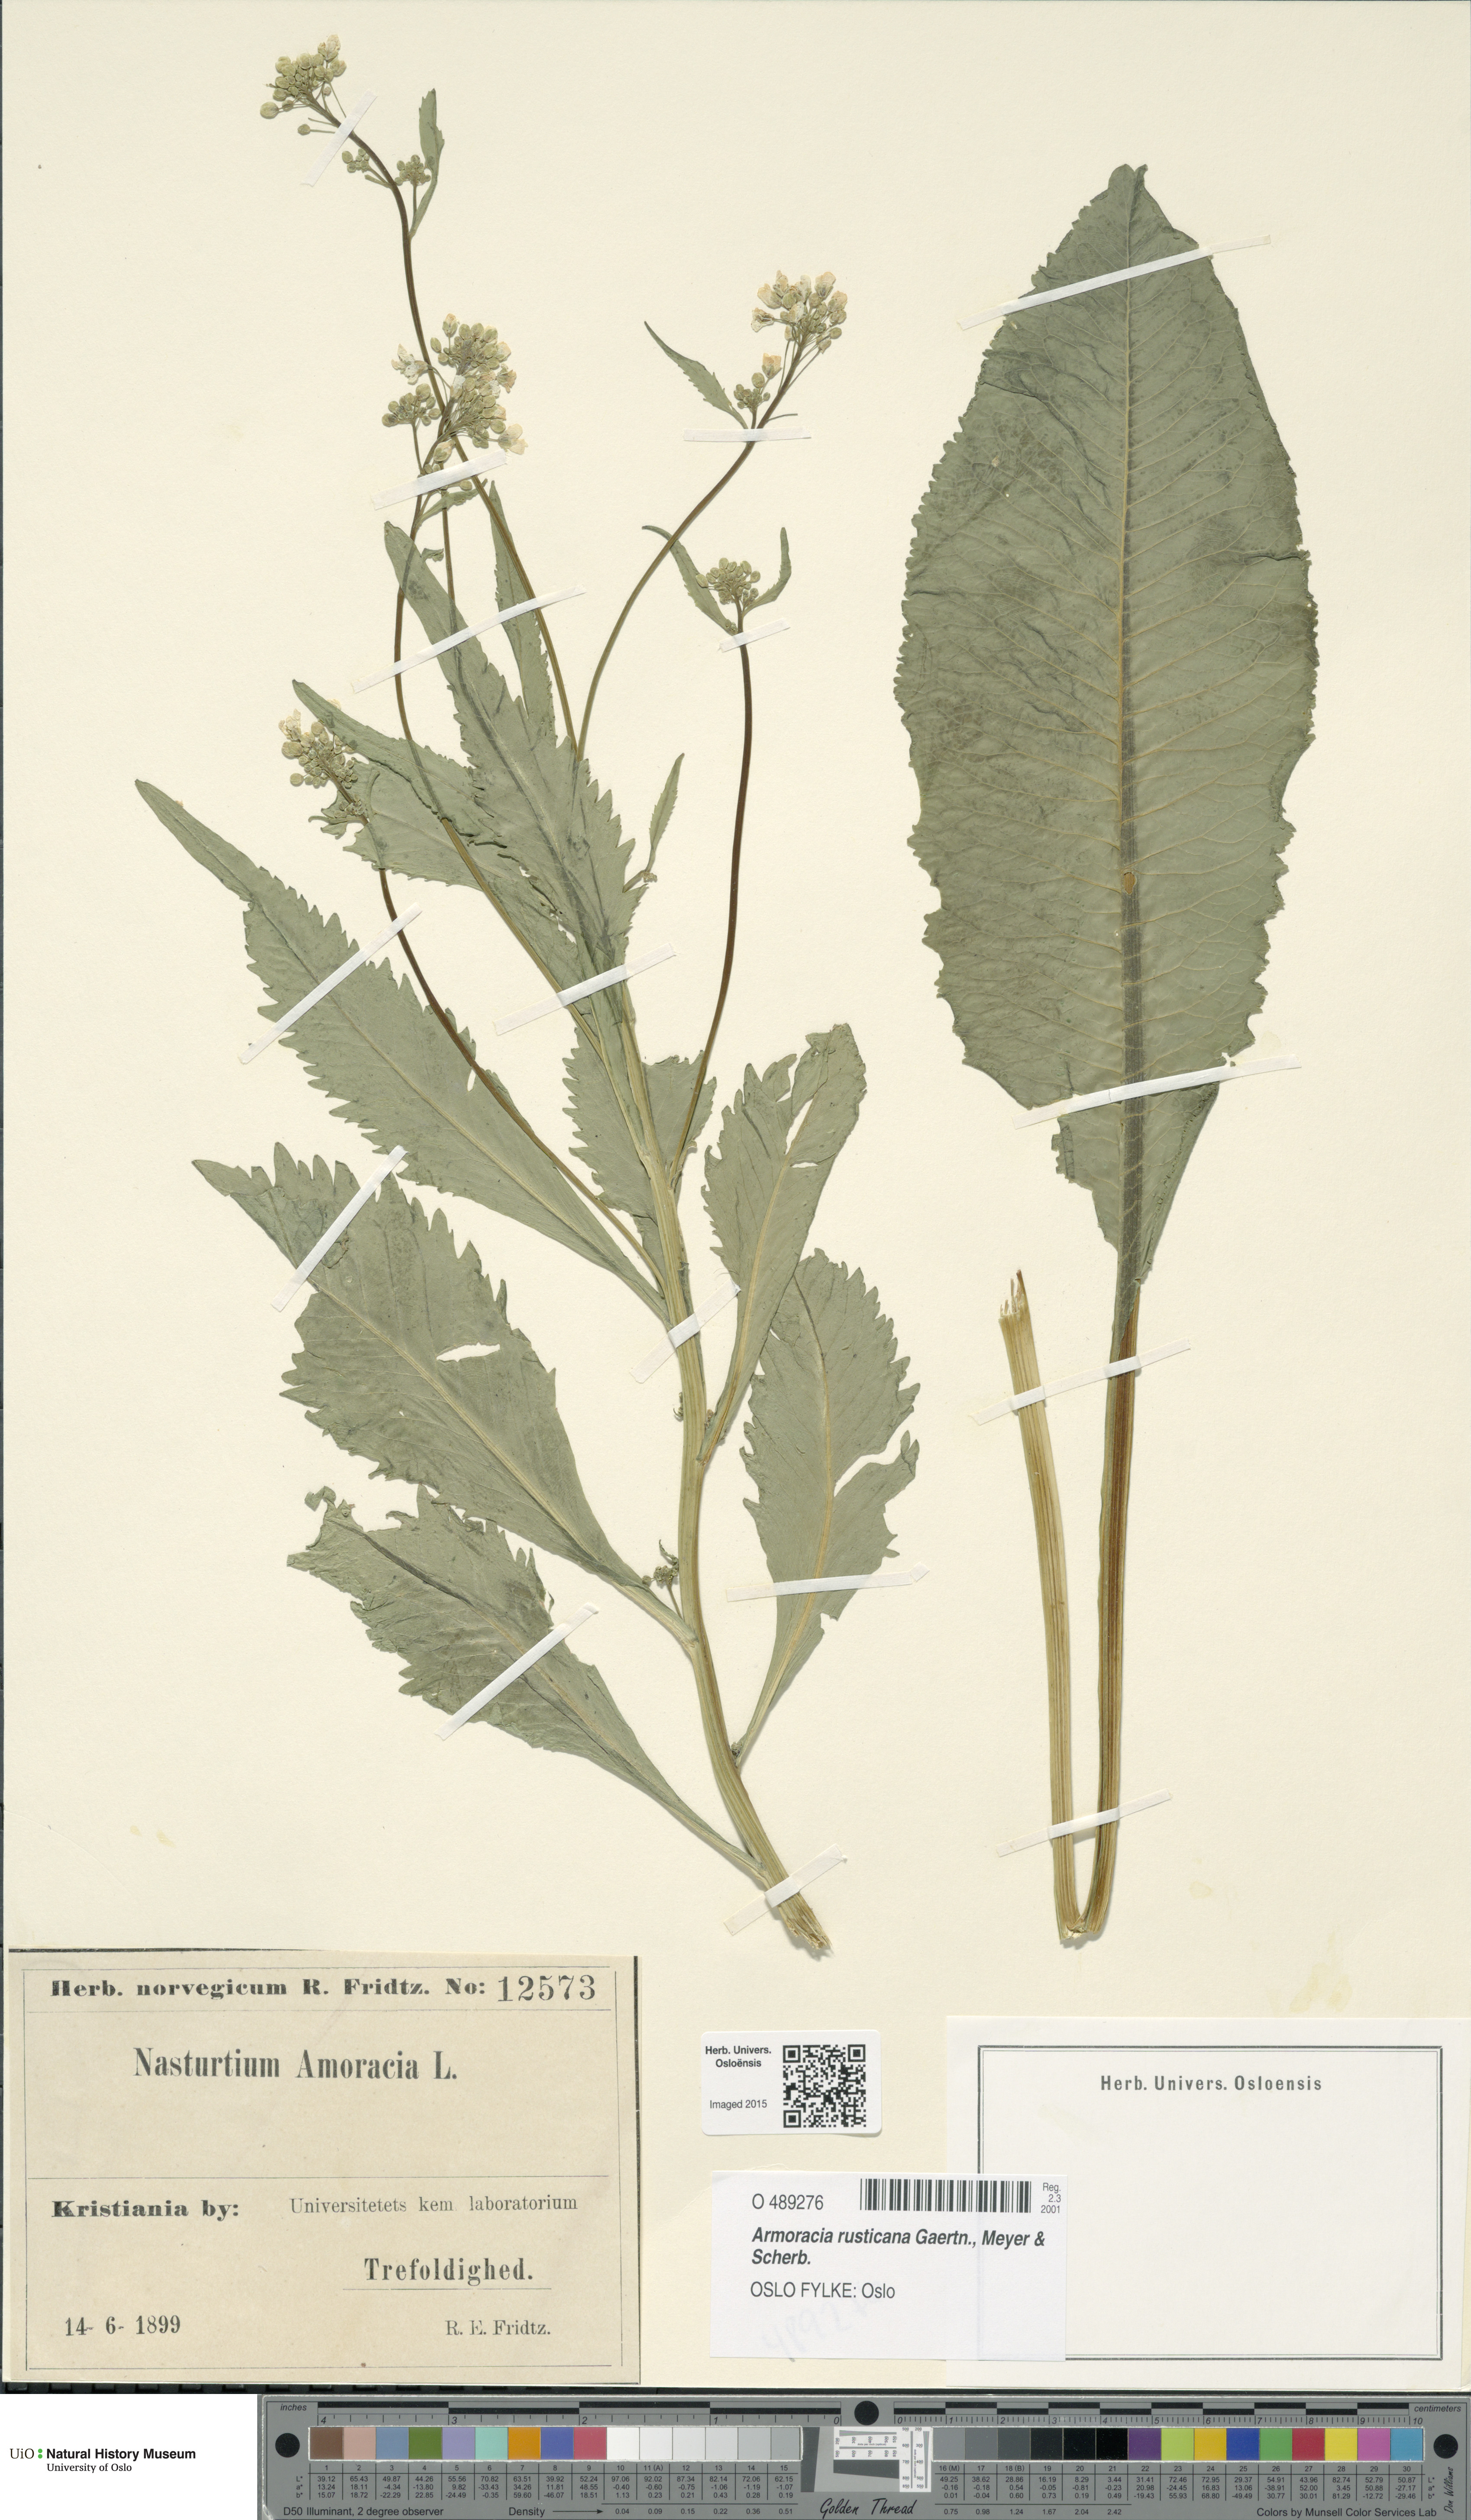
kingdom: Plantae
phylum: Tracheophyta
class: Magnoliopsida
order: Brassicales
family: Brassicaceae
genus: Armoracia
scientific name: Armoracia rusticana
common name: Horseradish
